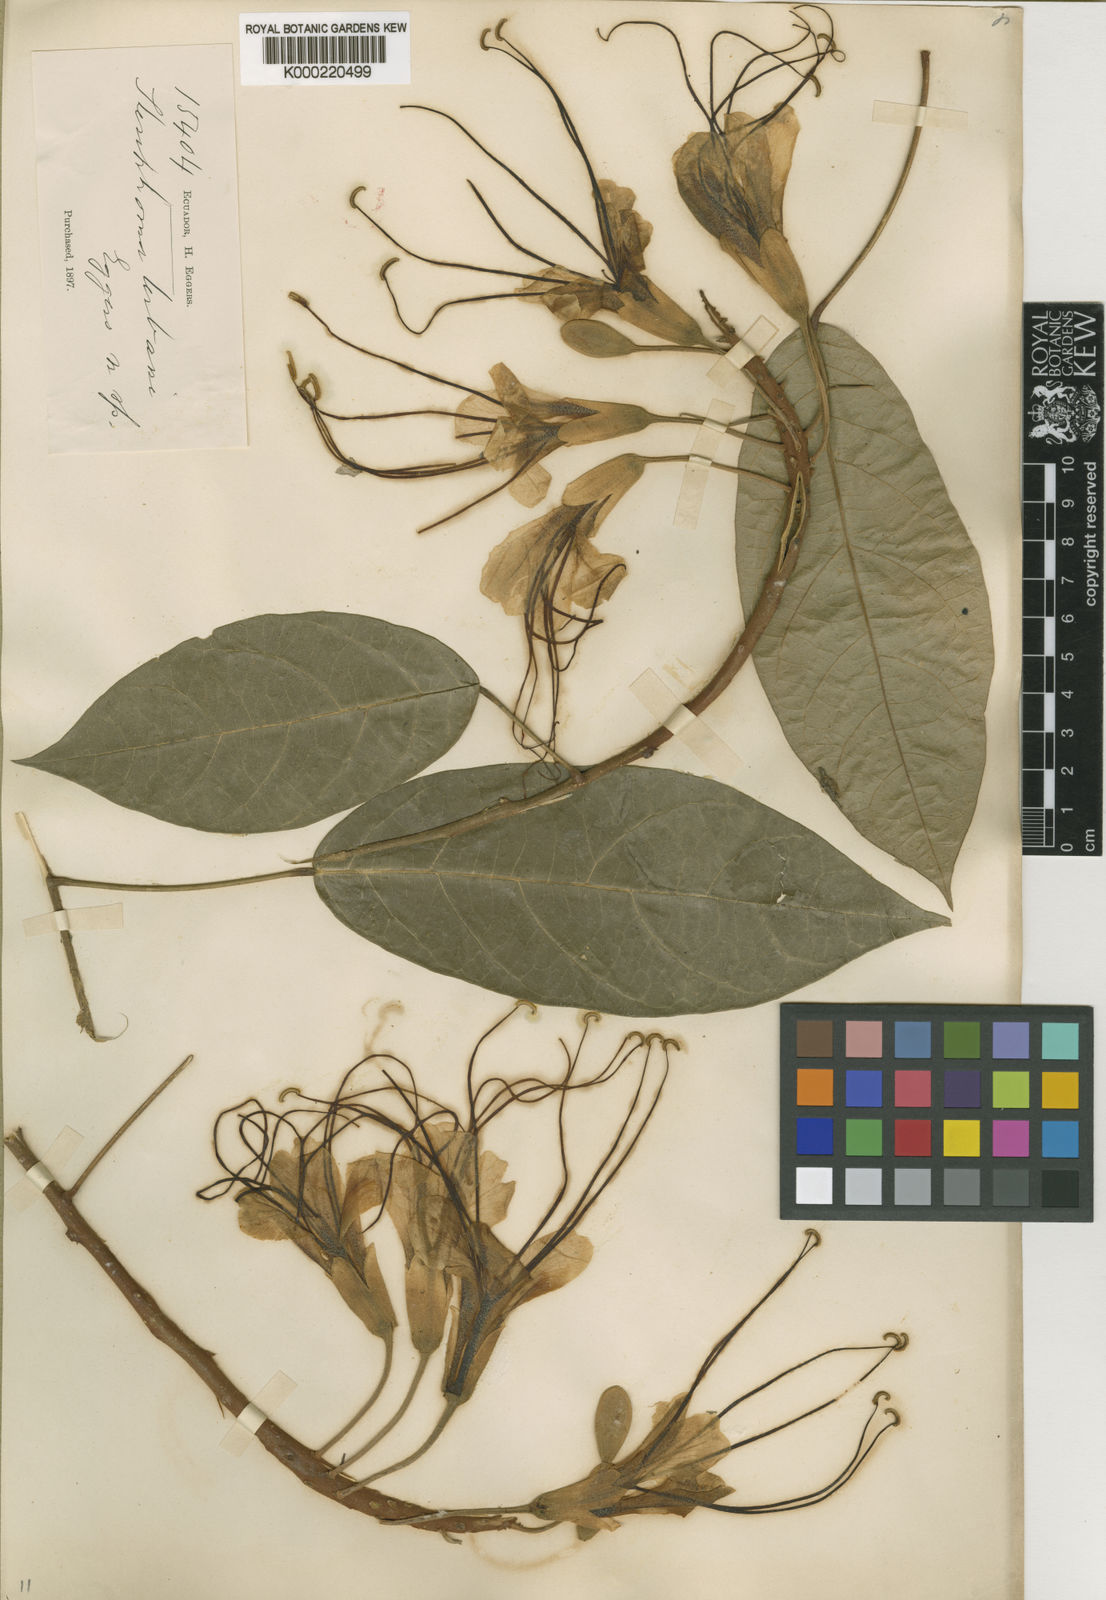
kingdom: Plantae
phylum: Tracheophyta
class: Magnoliopsida
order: Brassicales
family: Capparaceae
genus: Steriphoma
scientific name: Steriphoma urbani
